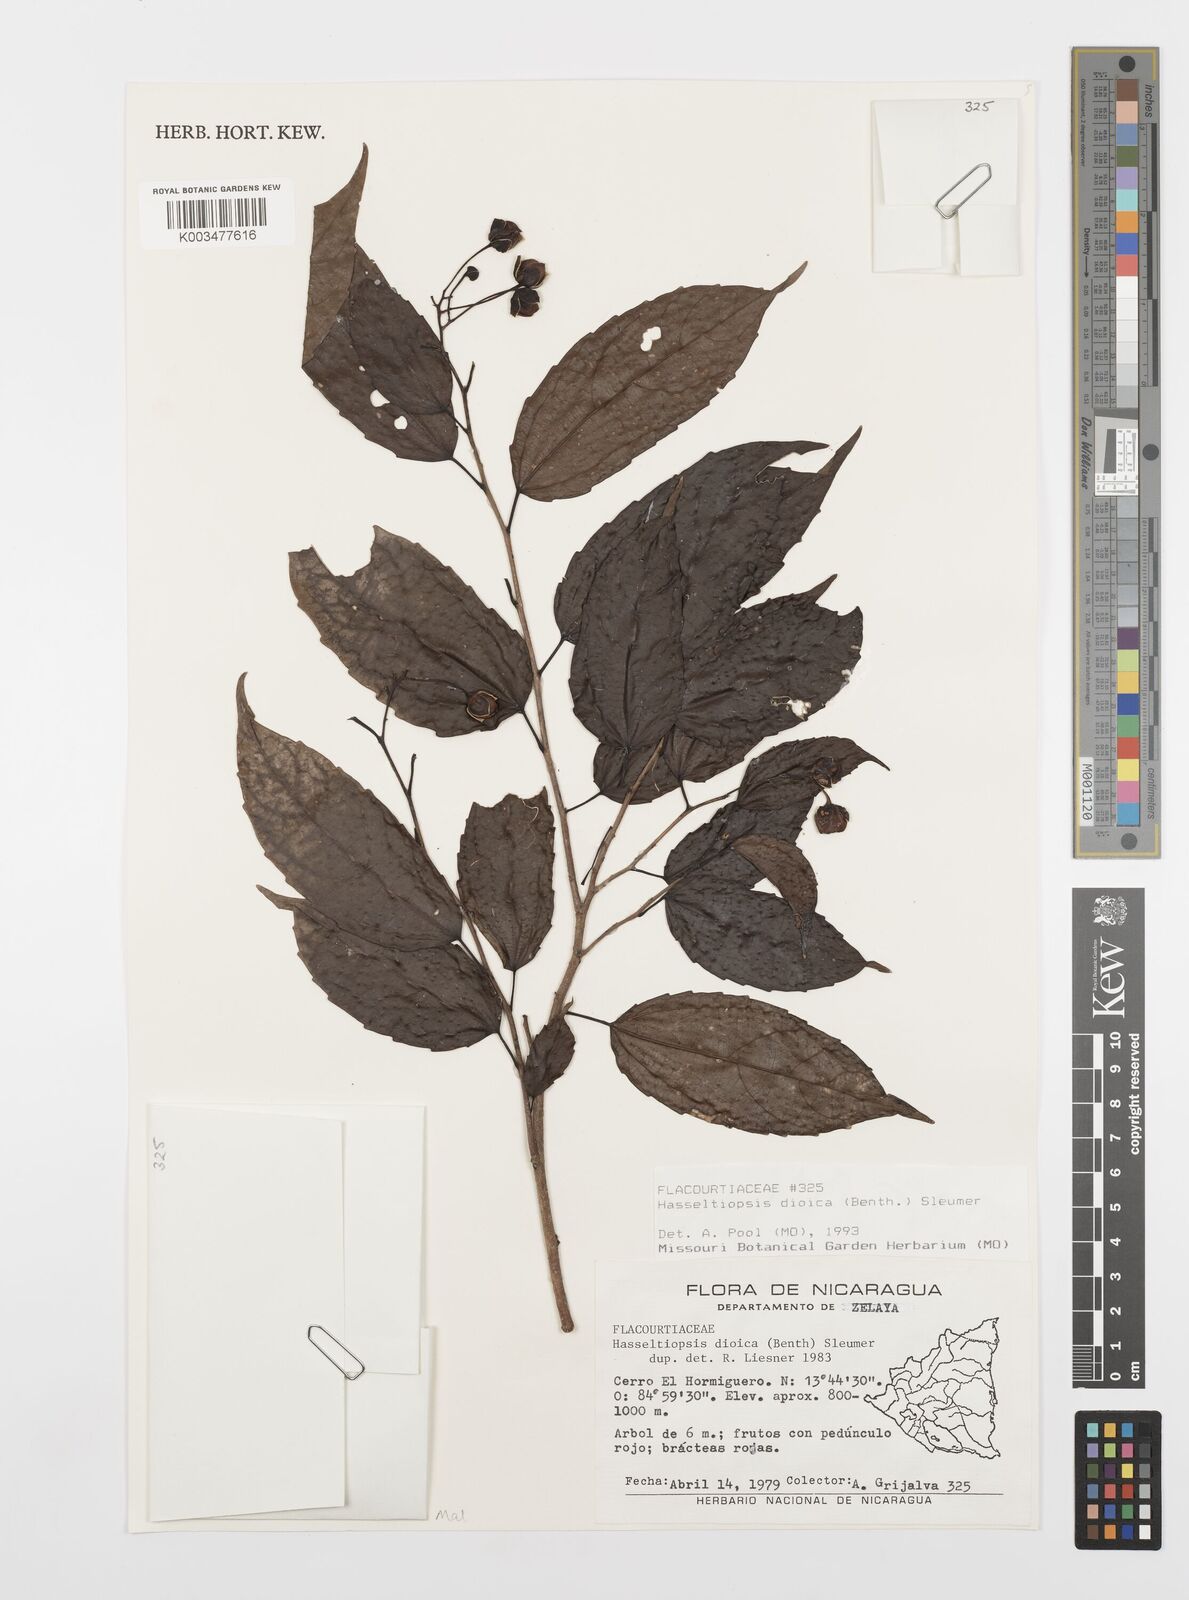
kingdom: Plantae
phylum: Tracheophyta
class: Magnoliopsida
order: Malpighiales
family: Salicaceae
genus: Hasseltiopsis
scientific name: Hasseltiopsis dioica
